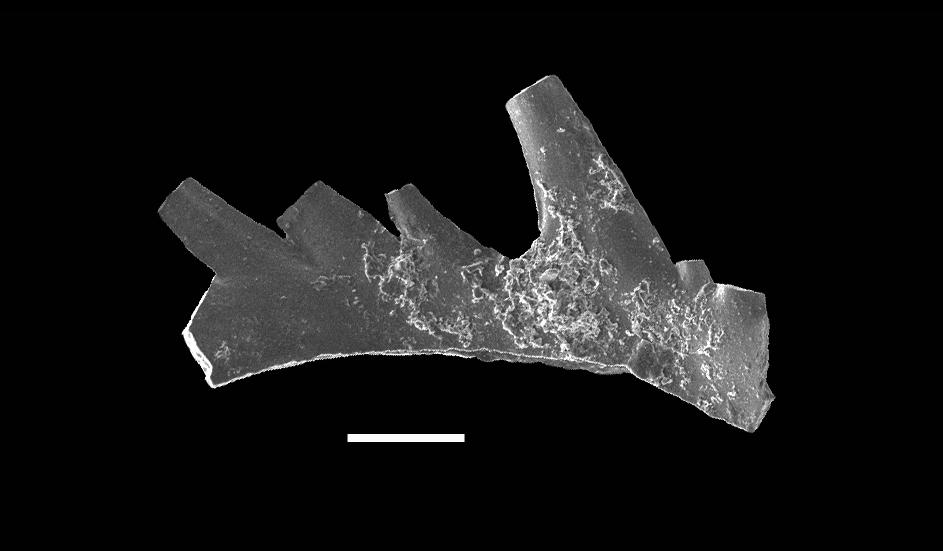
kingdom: Animalia
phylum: Chordata
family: Prioniodinidae
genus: Aspelundia
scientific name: Aspelundia fluegeli
